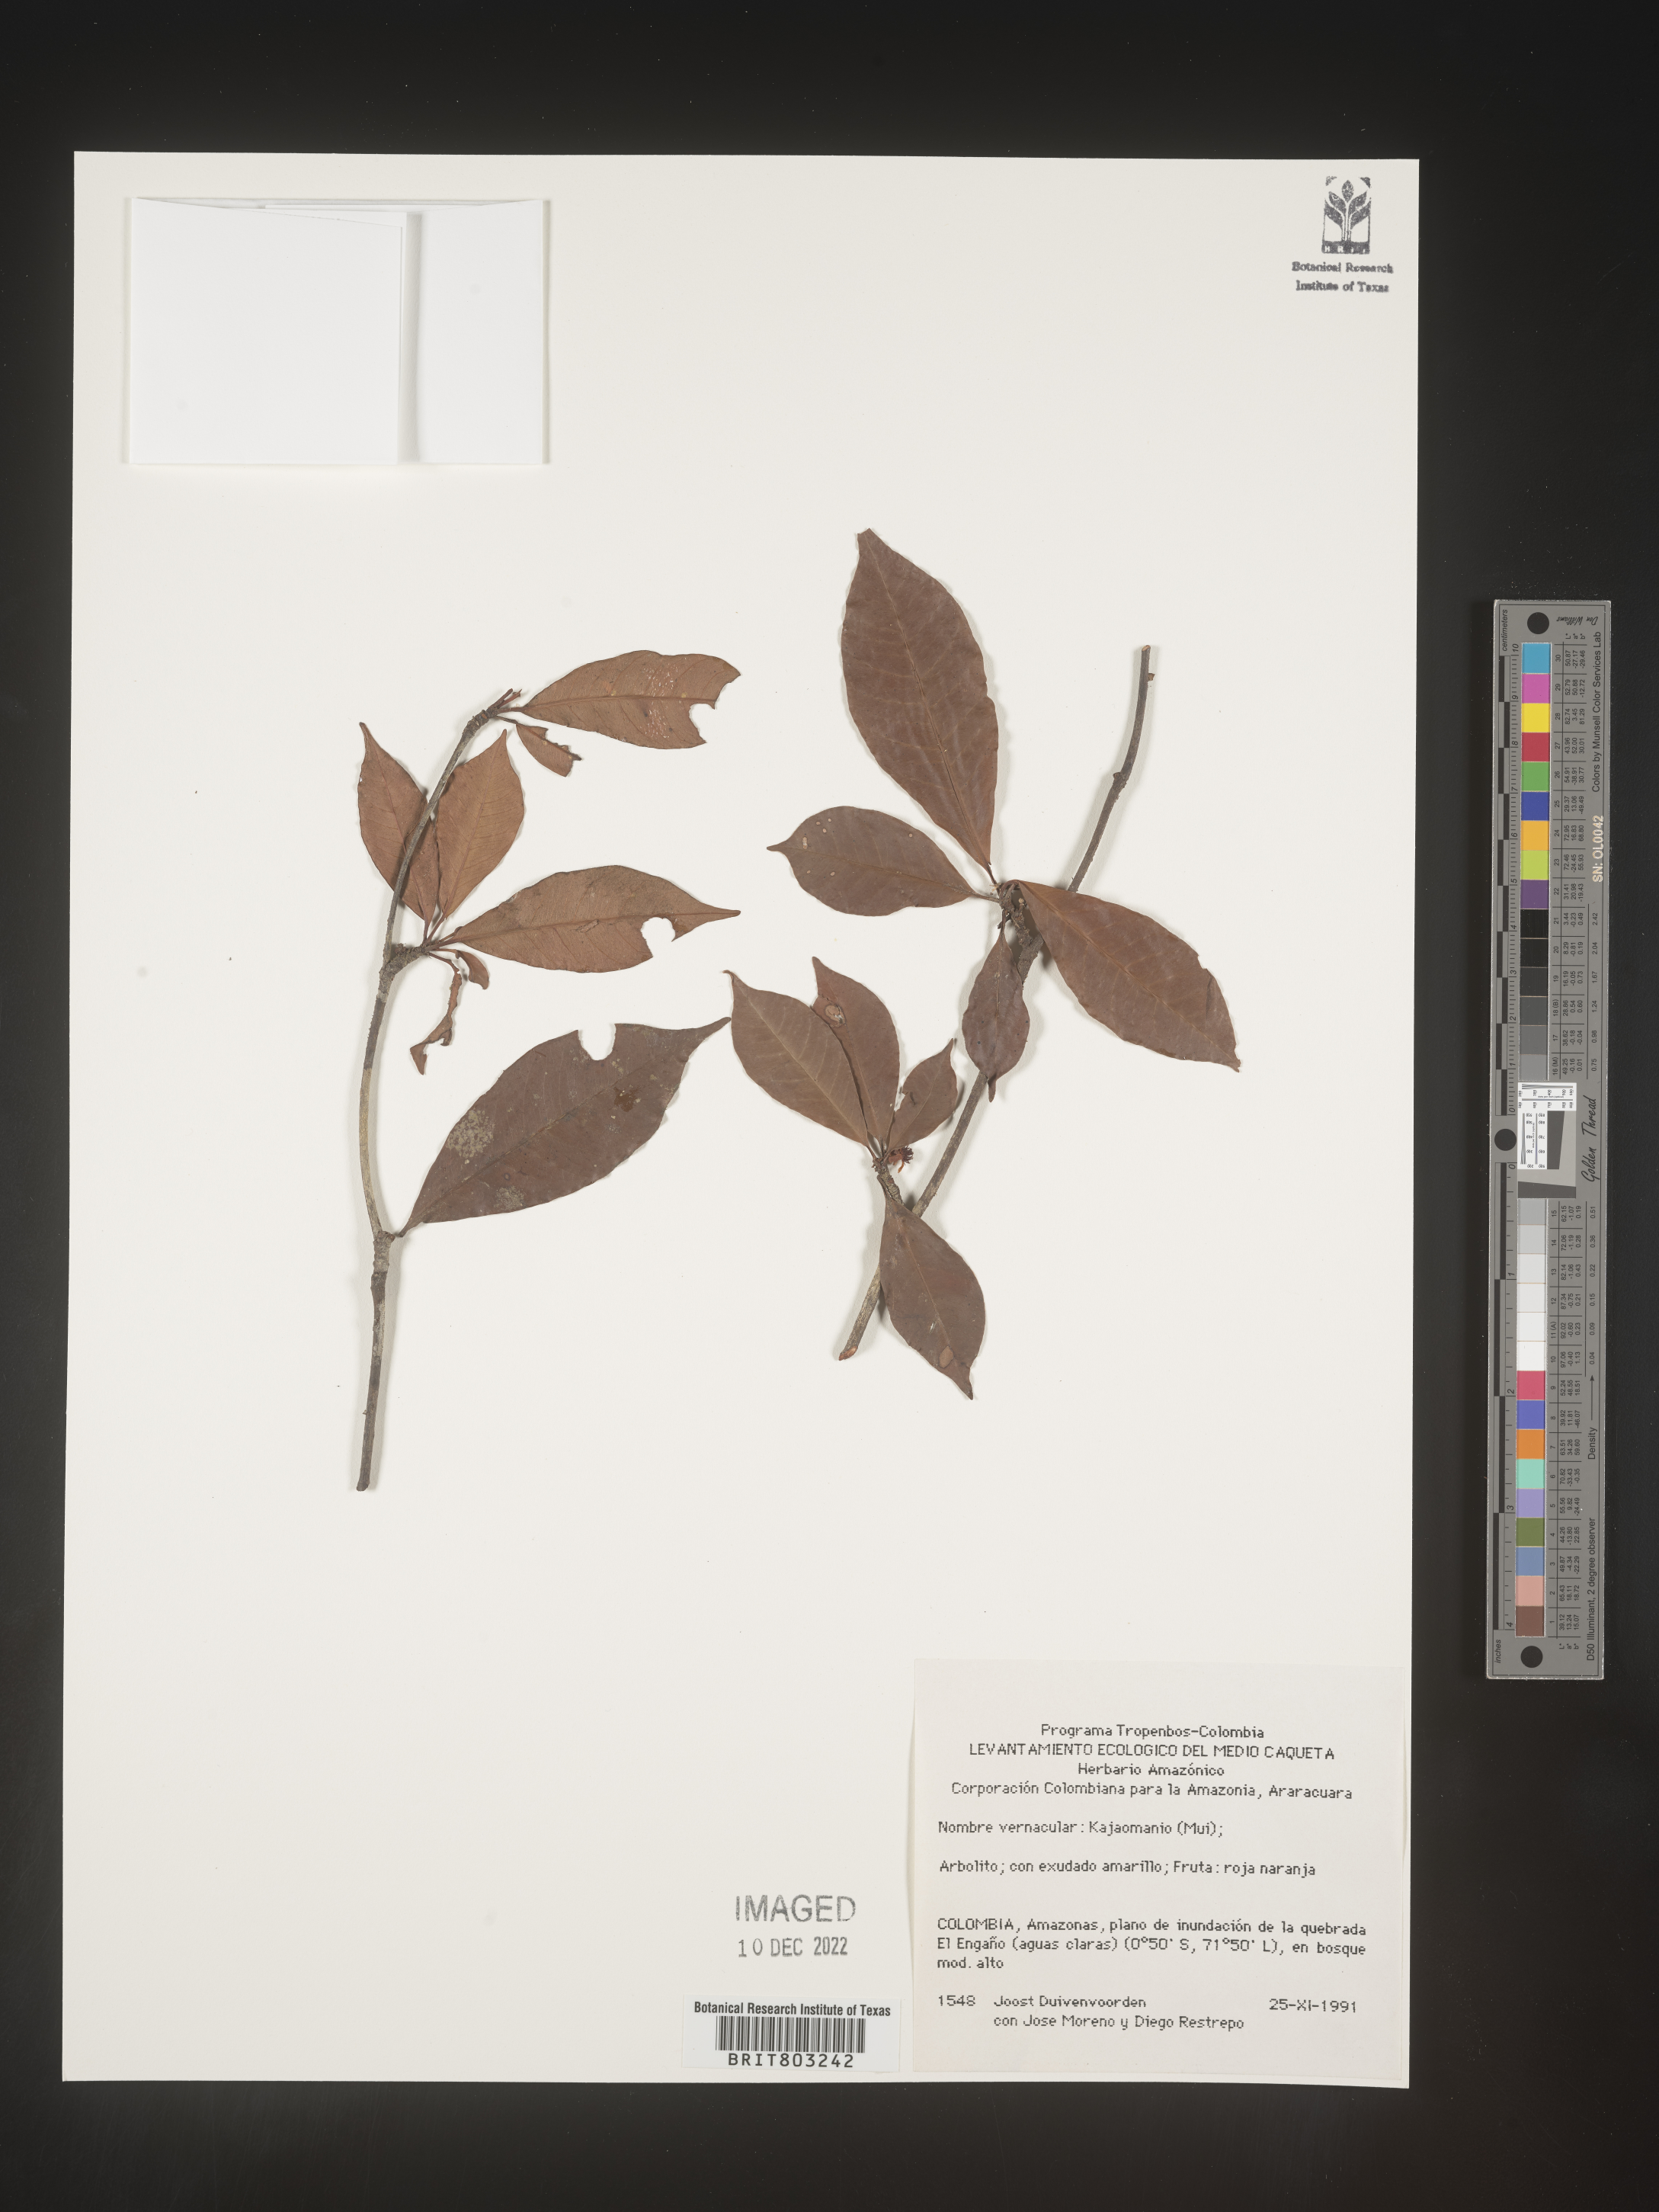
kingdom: Plantae
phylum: Tracheophyta
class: Magnoliopsida
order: Malpighiales
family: Clusiaceae
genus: Tovomita
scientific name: Tovomita
